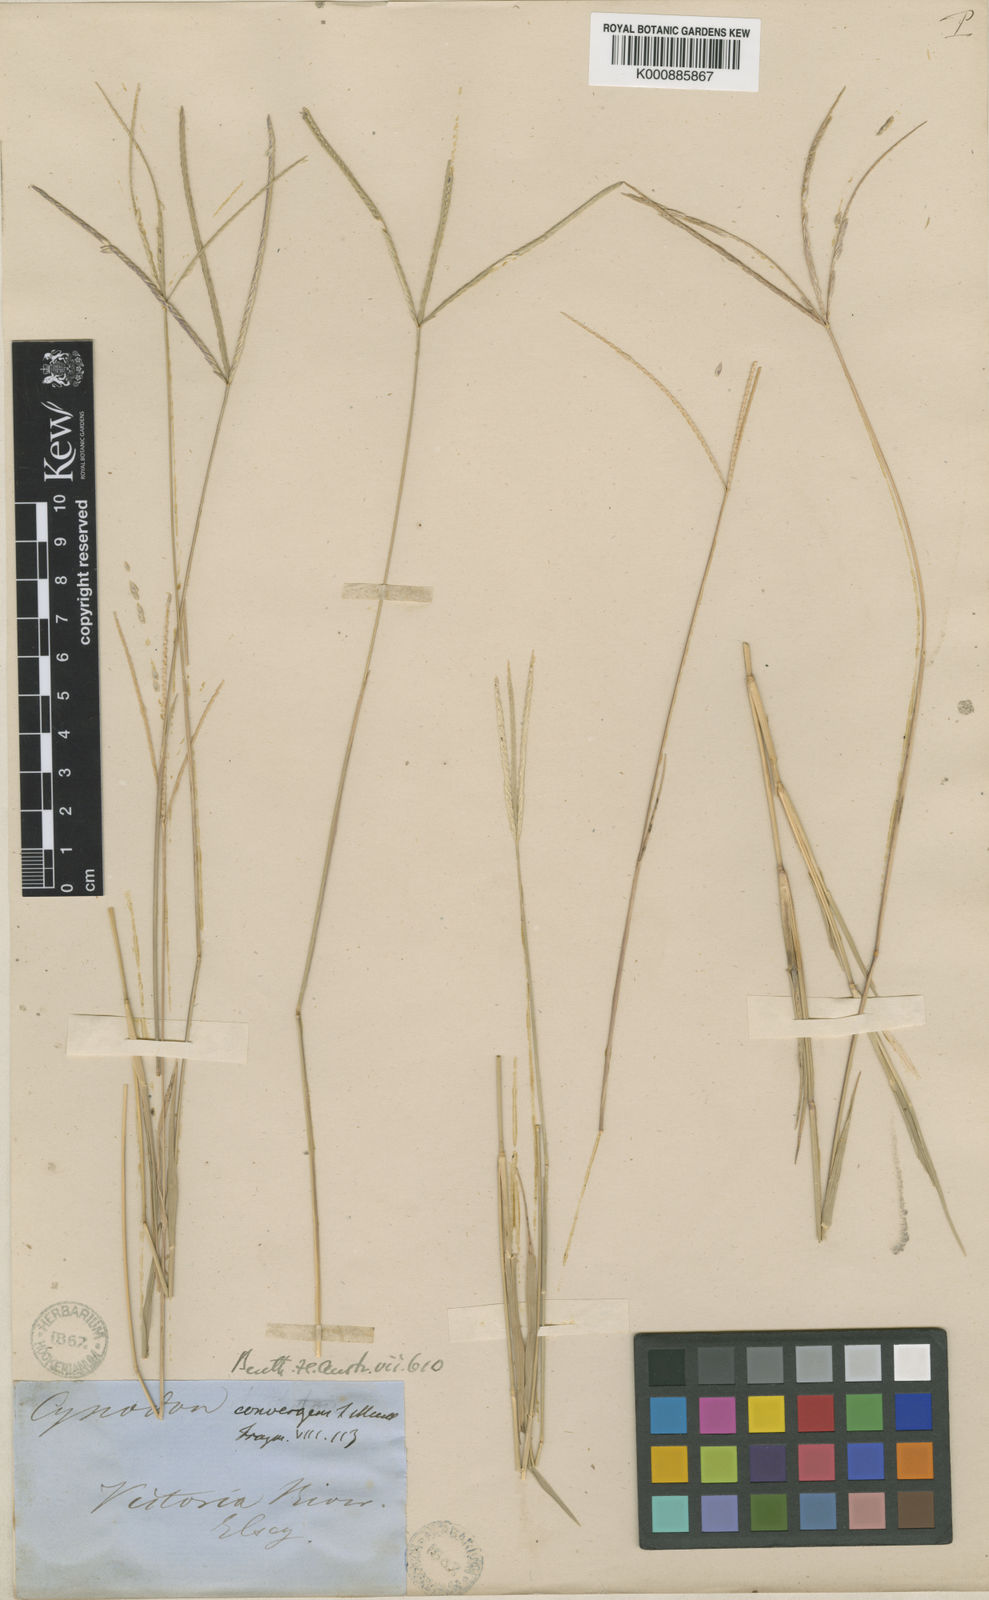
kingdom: Plantae
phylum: Tracheophyta
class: Liliopsida
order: Poales
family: Poaceae
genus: Cynodon
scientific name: Cynodon convergens
